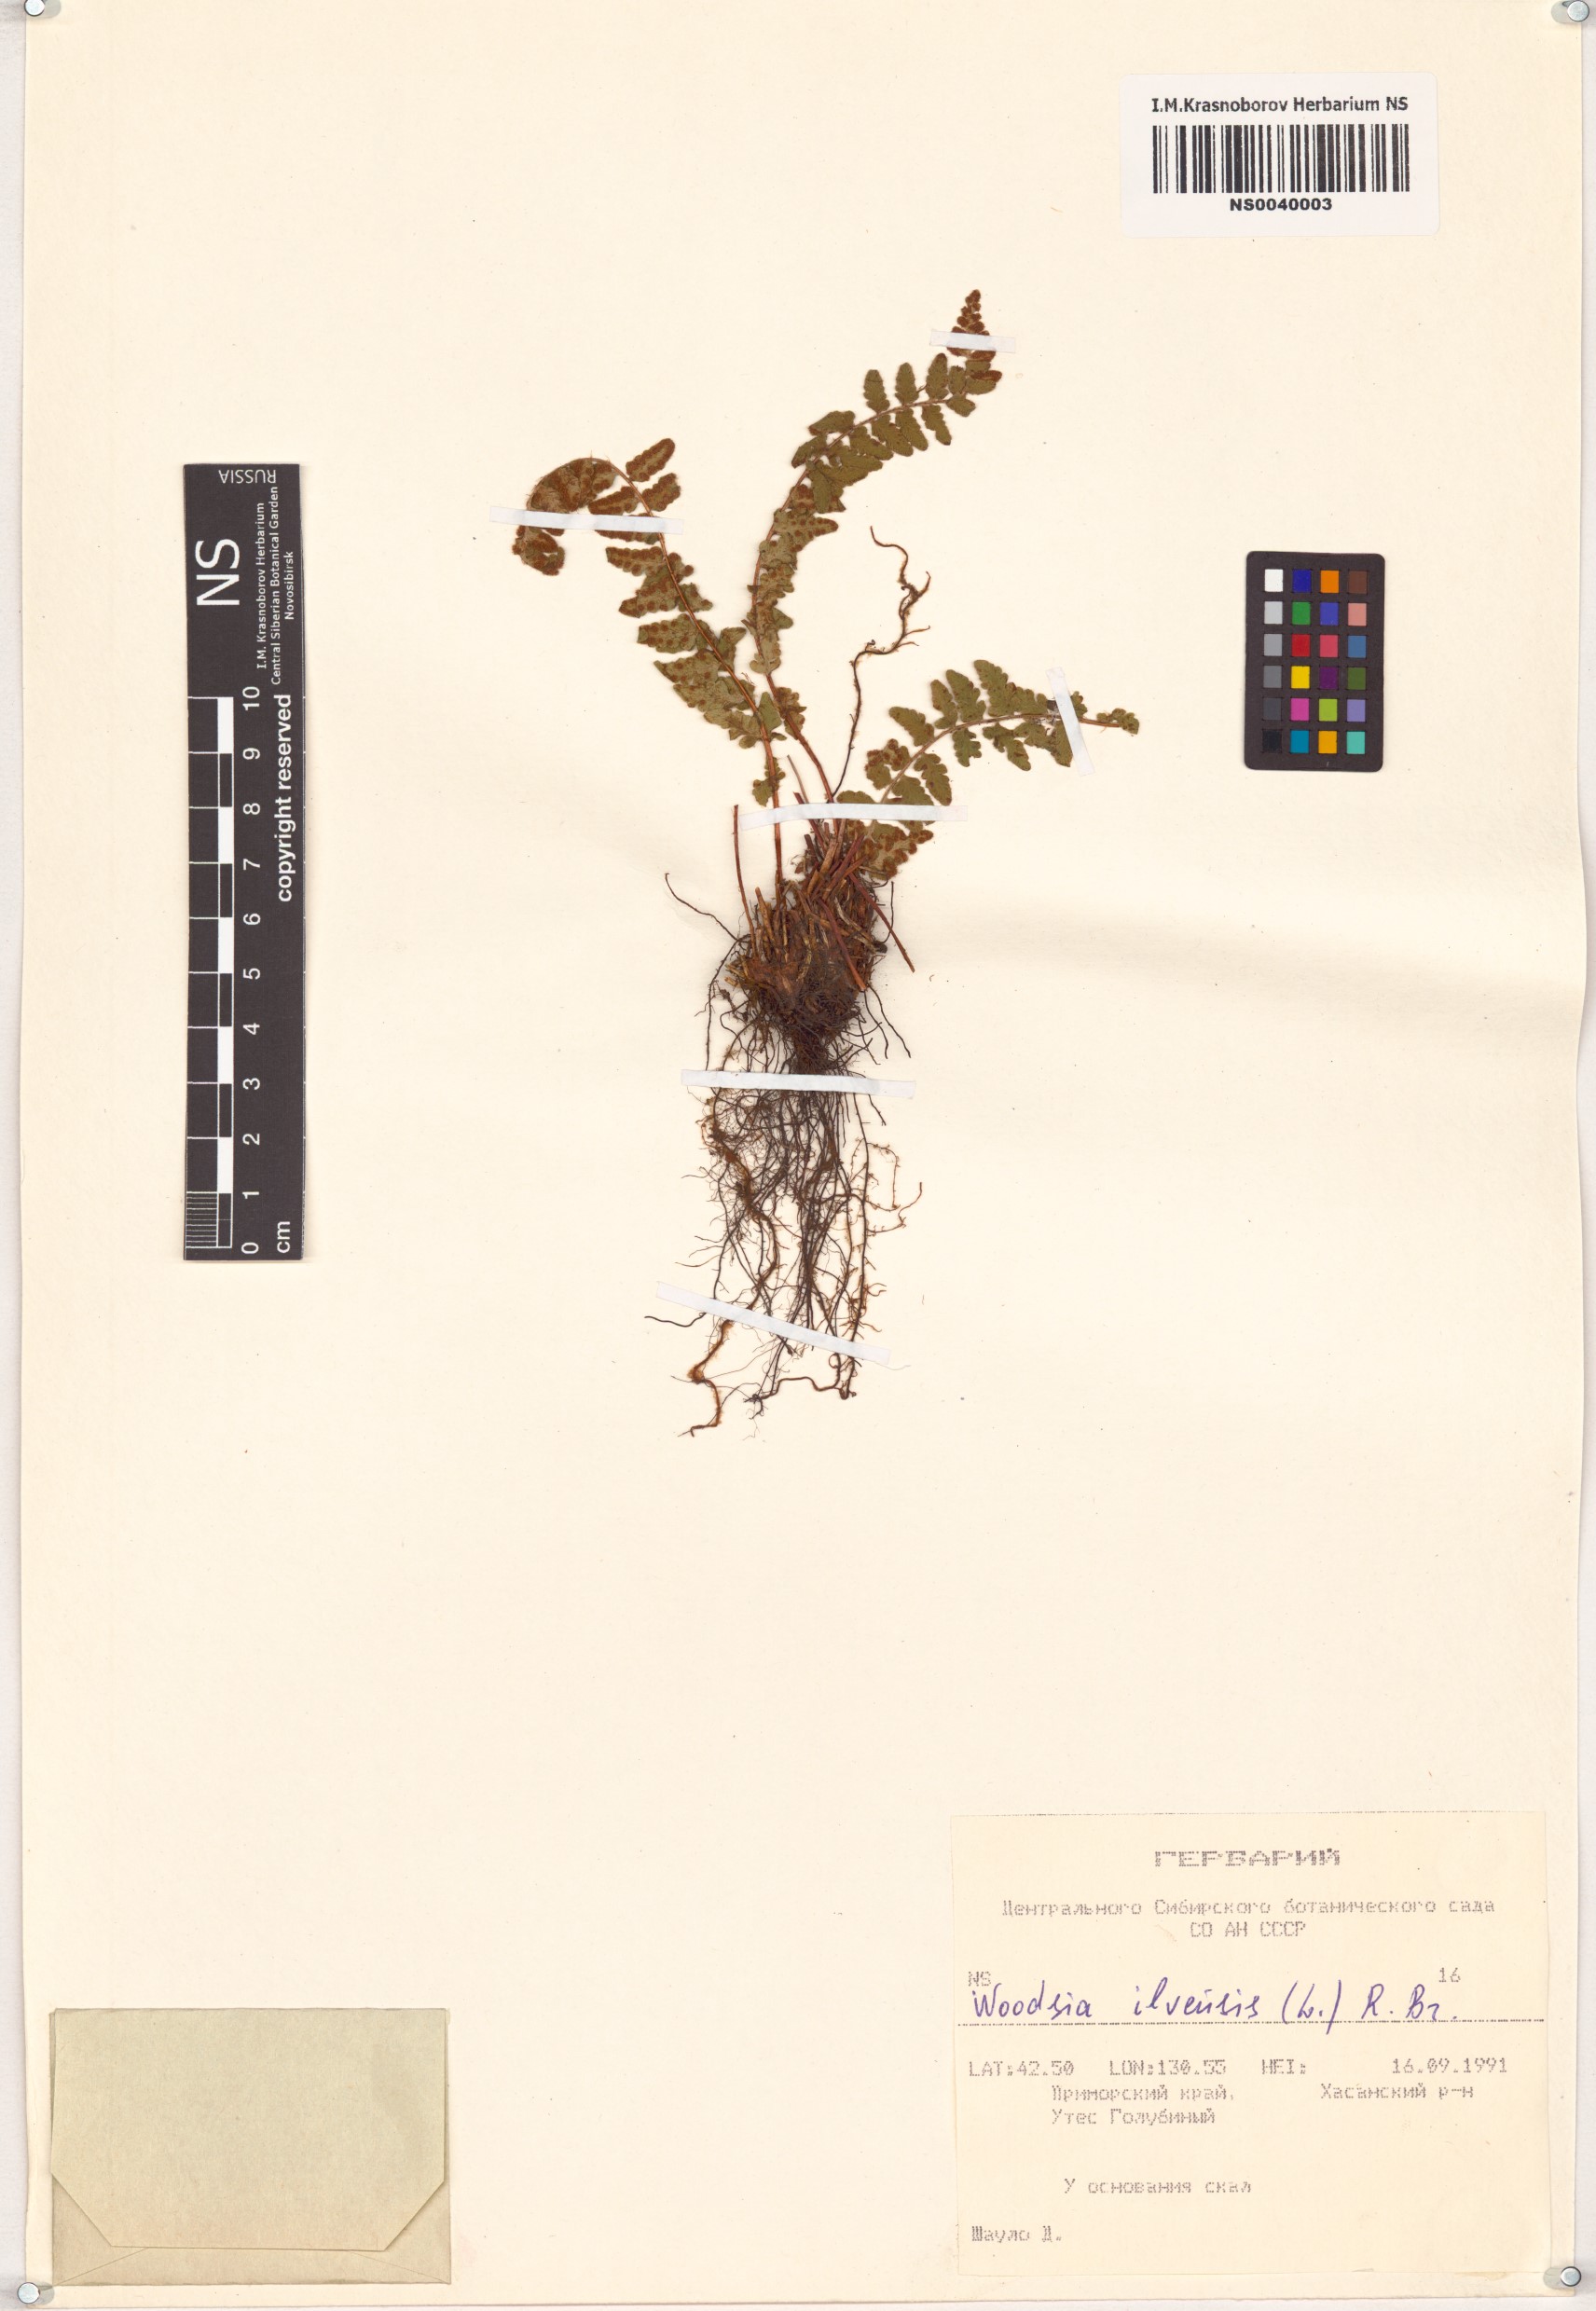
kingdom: Plantae
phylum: Tracheophyta
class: Polypodiopsida
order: Polypodiales
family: Woodsiaceae
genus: Woodsia
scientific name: Woodsia ilvensis
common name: Fragrant woodsia
